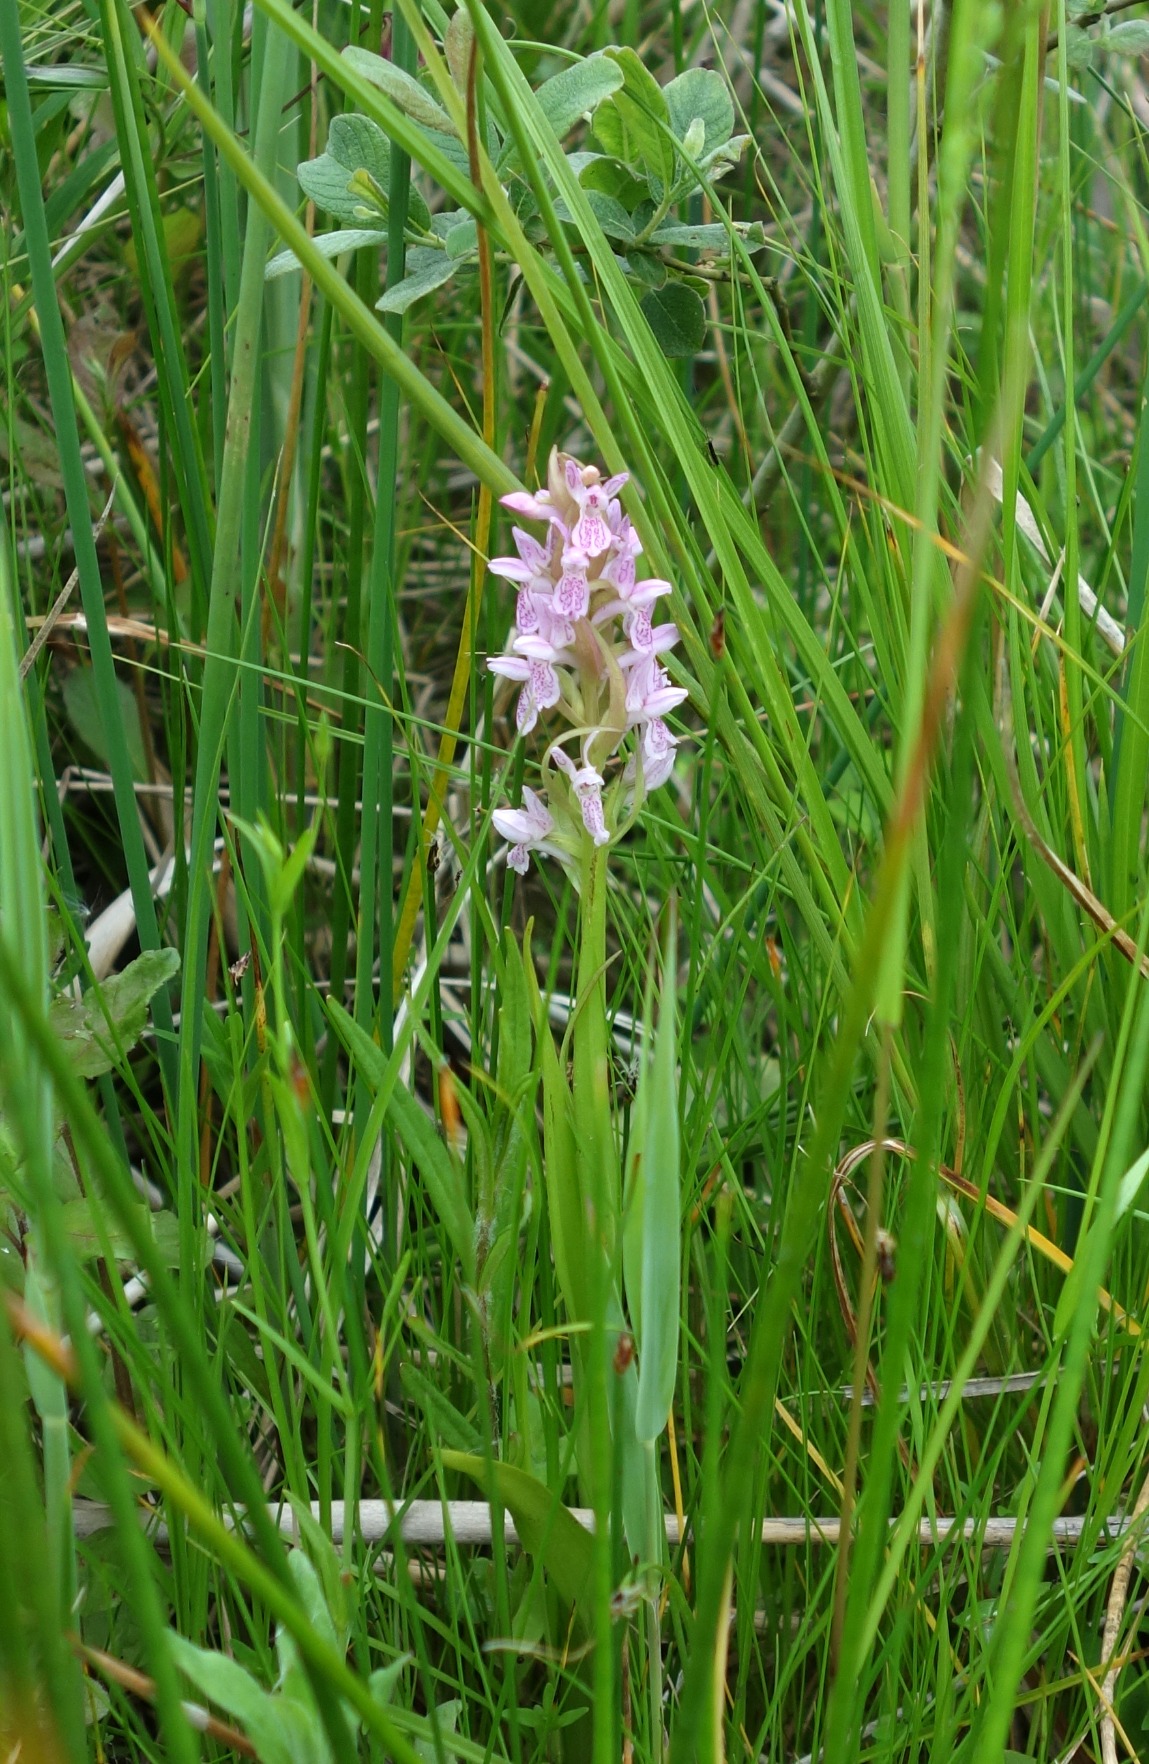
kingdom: Plantae
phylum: Tracheophyta
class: Liliopsida
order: Asparagales
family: Orchidaceae
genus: Dactylorhiza
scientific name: Dactylorhiza incarnata
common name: Kødfarvet gøgeurt
